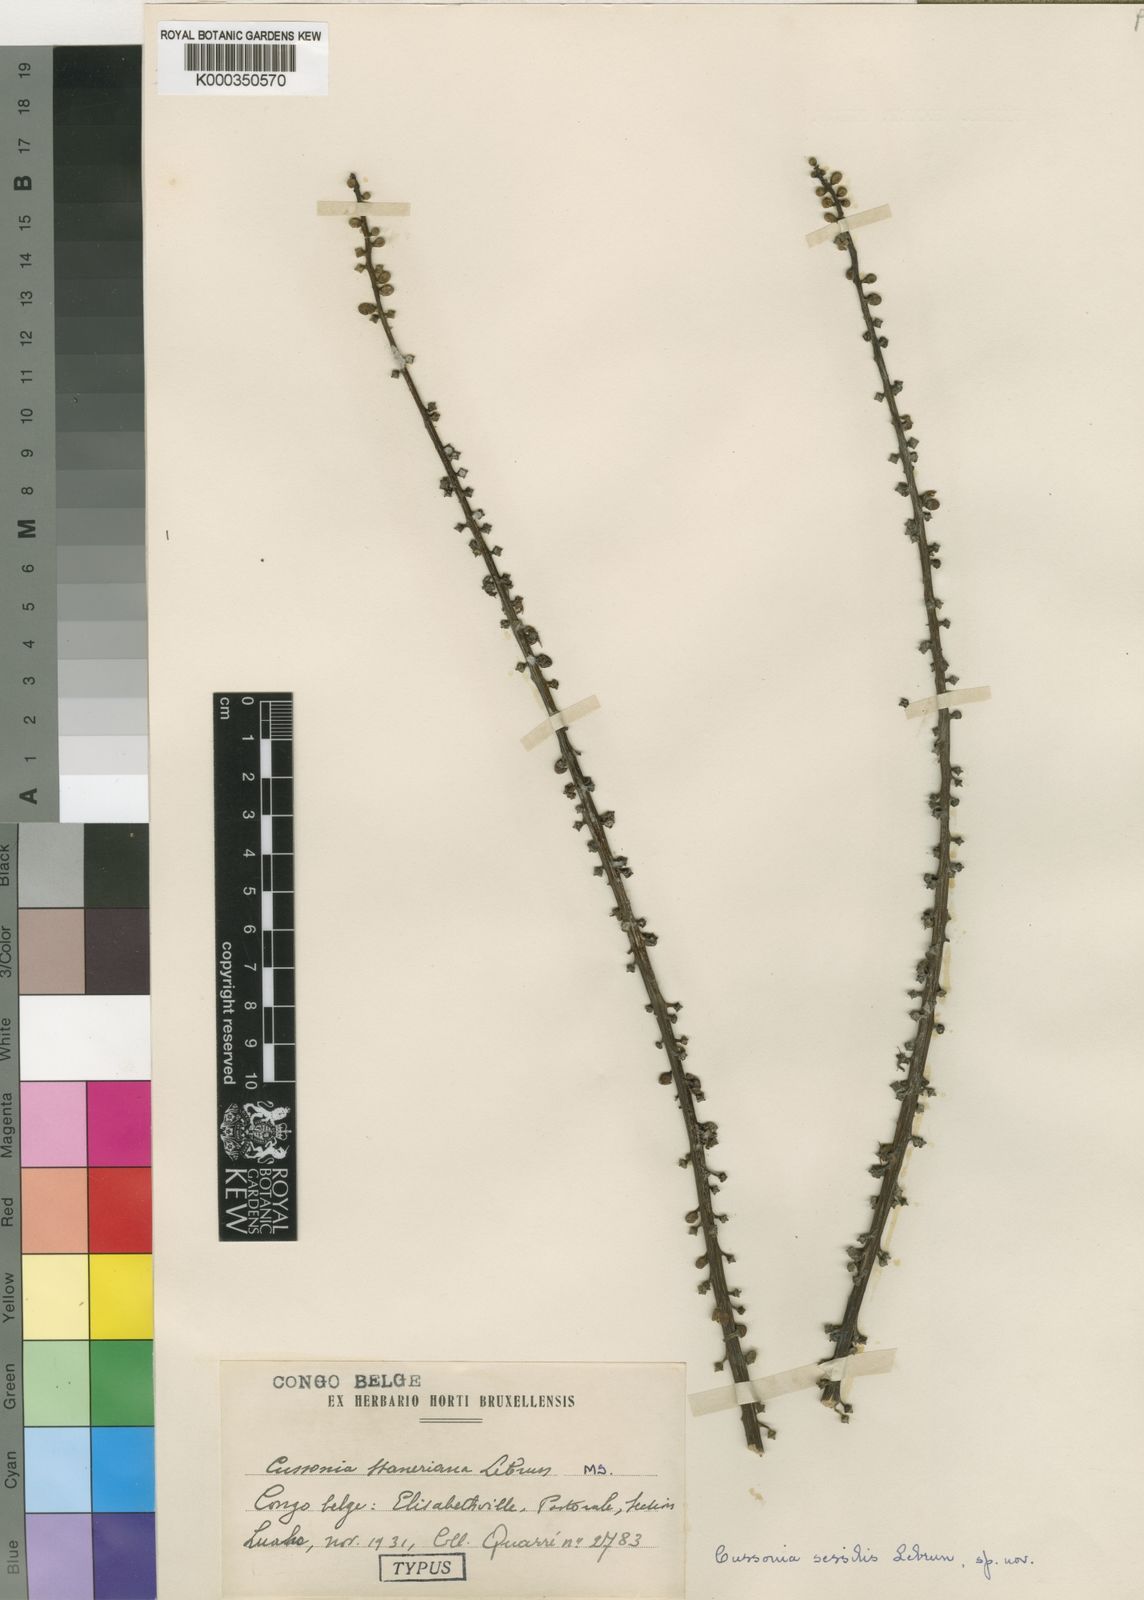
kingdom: Plantae
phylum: Tracheophyta
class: Magnoliopsida
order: Apiales
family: Araliaceae
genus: Cussonia
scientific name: Cussonia sessilis
